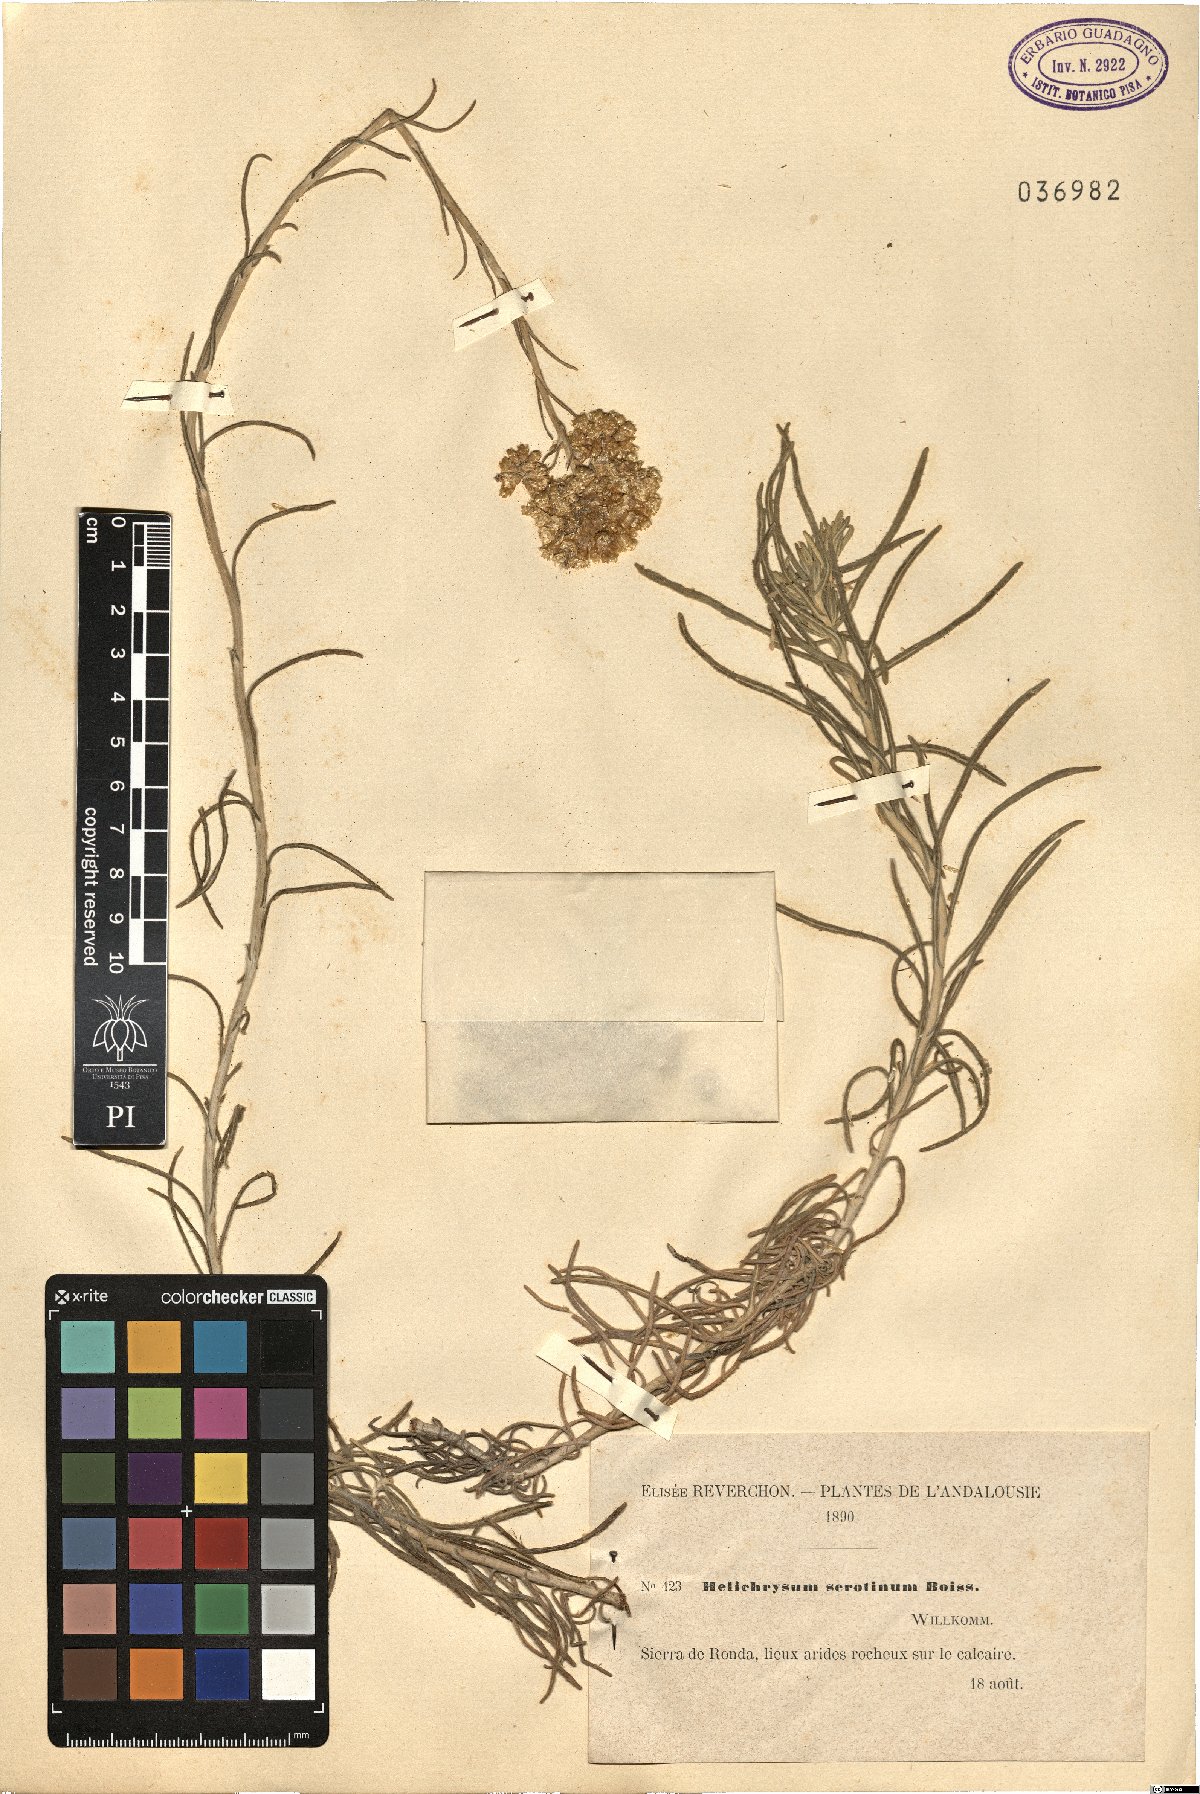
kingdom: Plantae
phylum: Tracheophyta
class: Magnoliopsida
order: Asterales
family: Asteraceae
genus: Helichrysum
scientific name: Helichrysum serotinum
